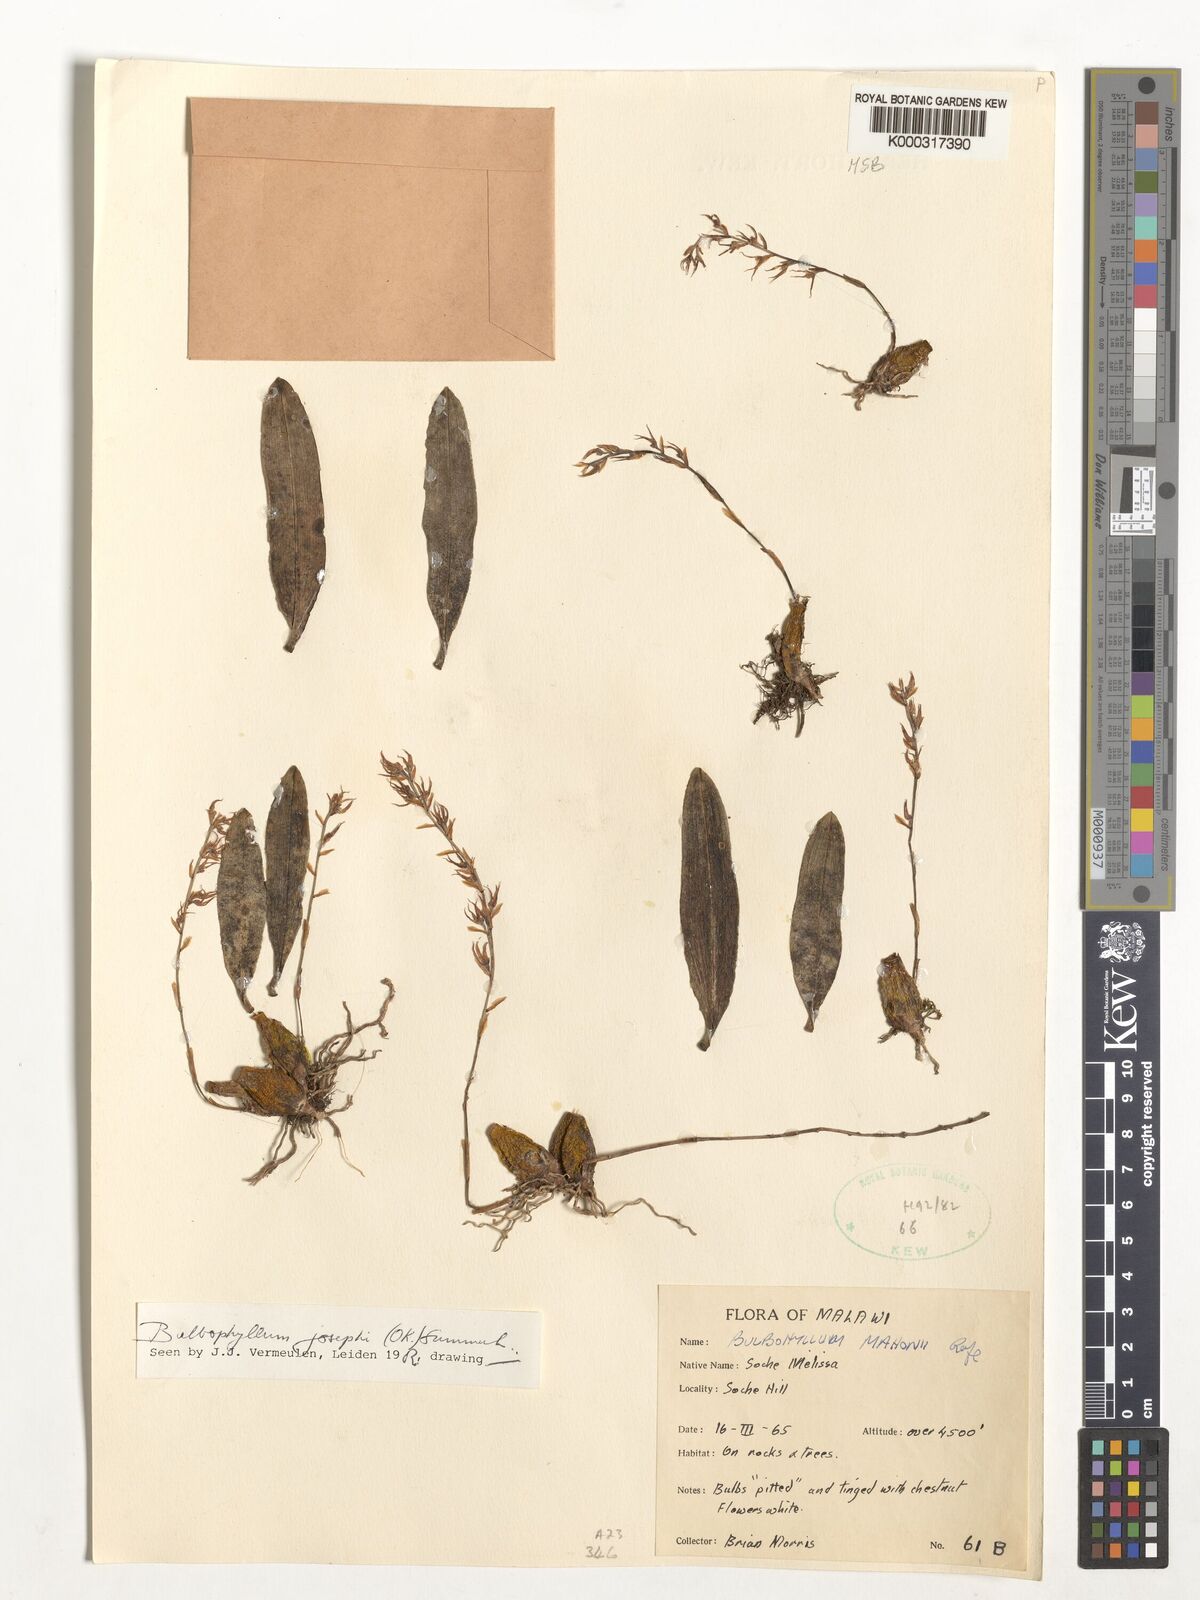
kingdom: Plantae
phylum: Tracheophyta
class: Liliopsida
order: Asparagales
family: Orchidaceae
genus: Bulbophyllum
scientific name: Bulbophyllum josephi
